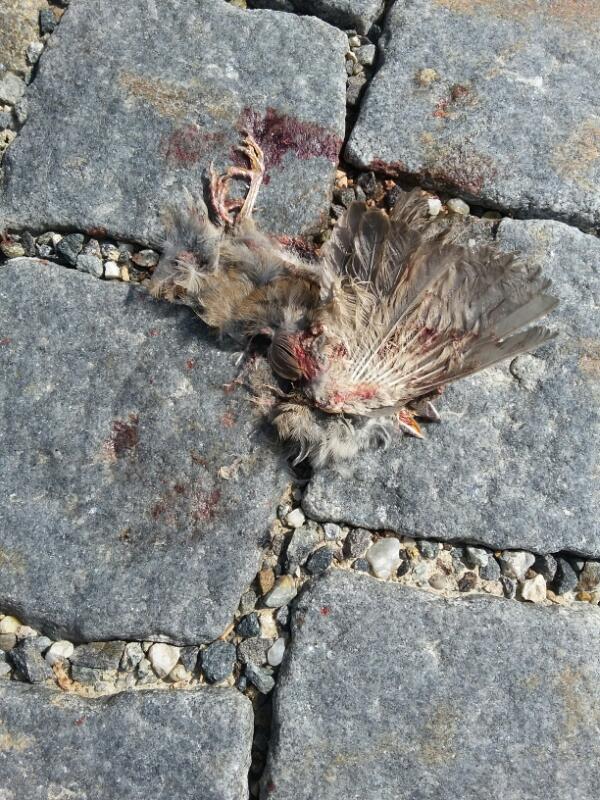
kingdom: Animalia
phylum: Chordata
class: Aves
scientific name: Aves
